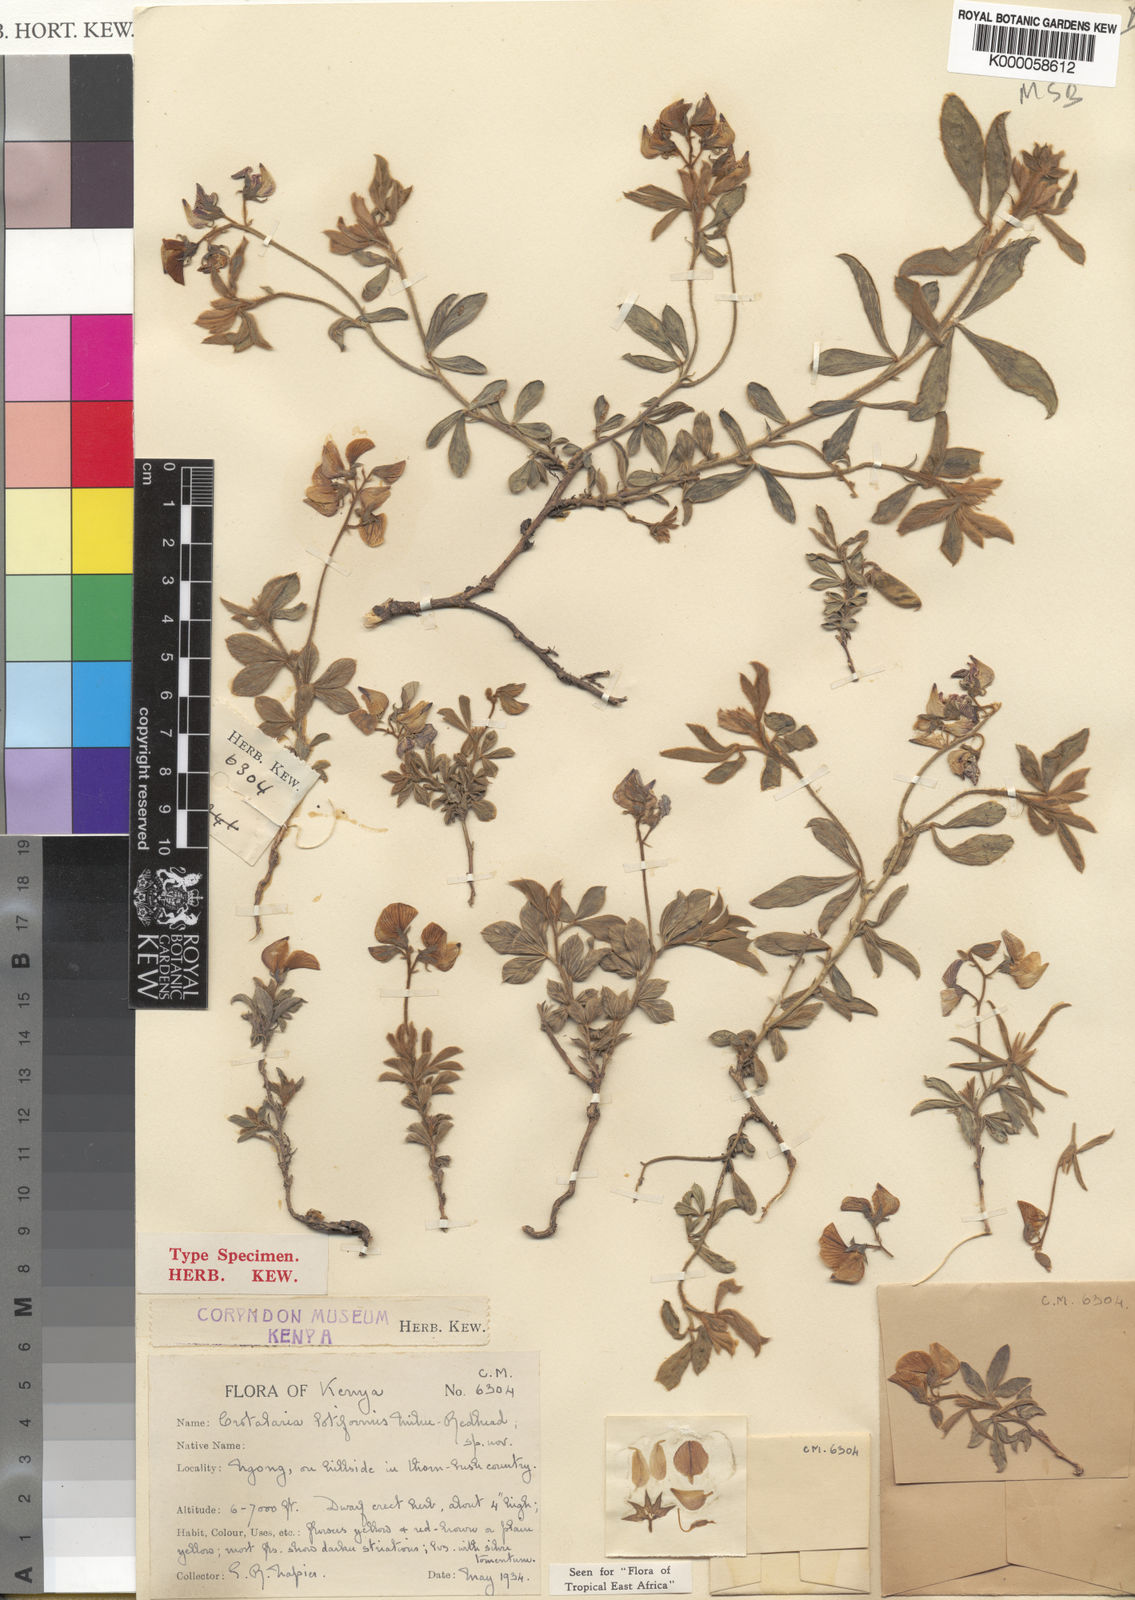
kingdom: Plantae
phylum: Tracheophyta
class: Magnoliopsida
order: Fabales
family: Fabaceae
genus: Crotalaria
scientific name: Crotalaria lotiformis
